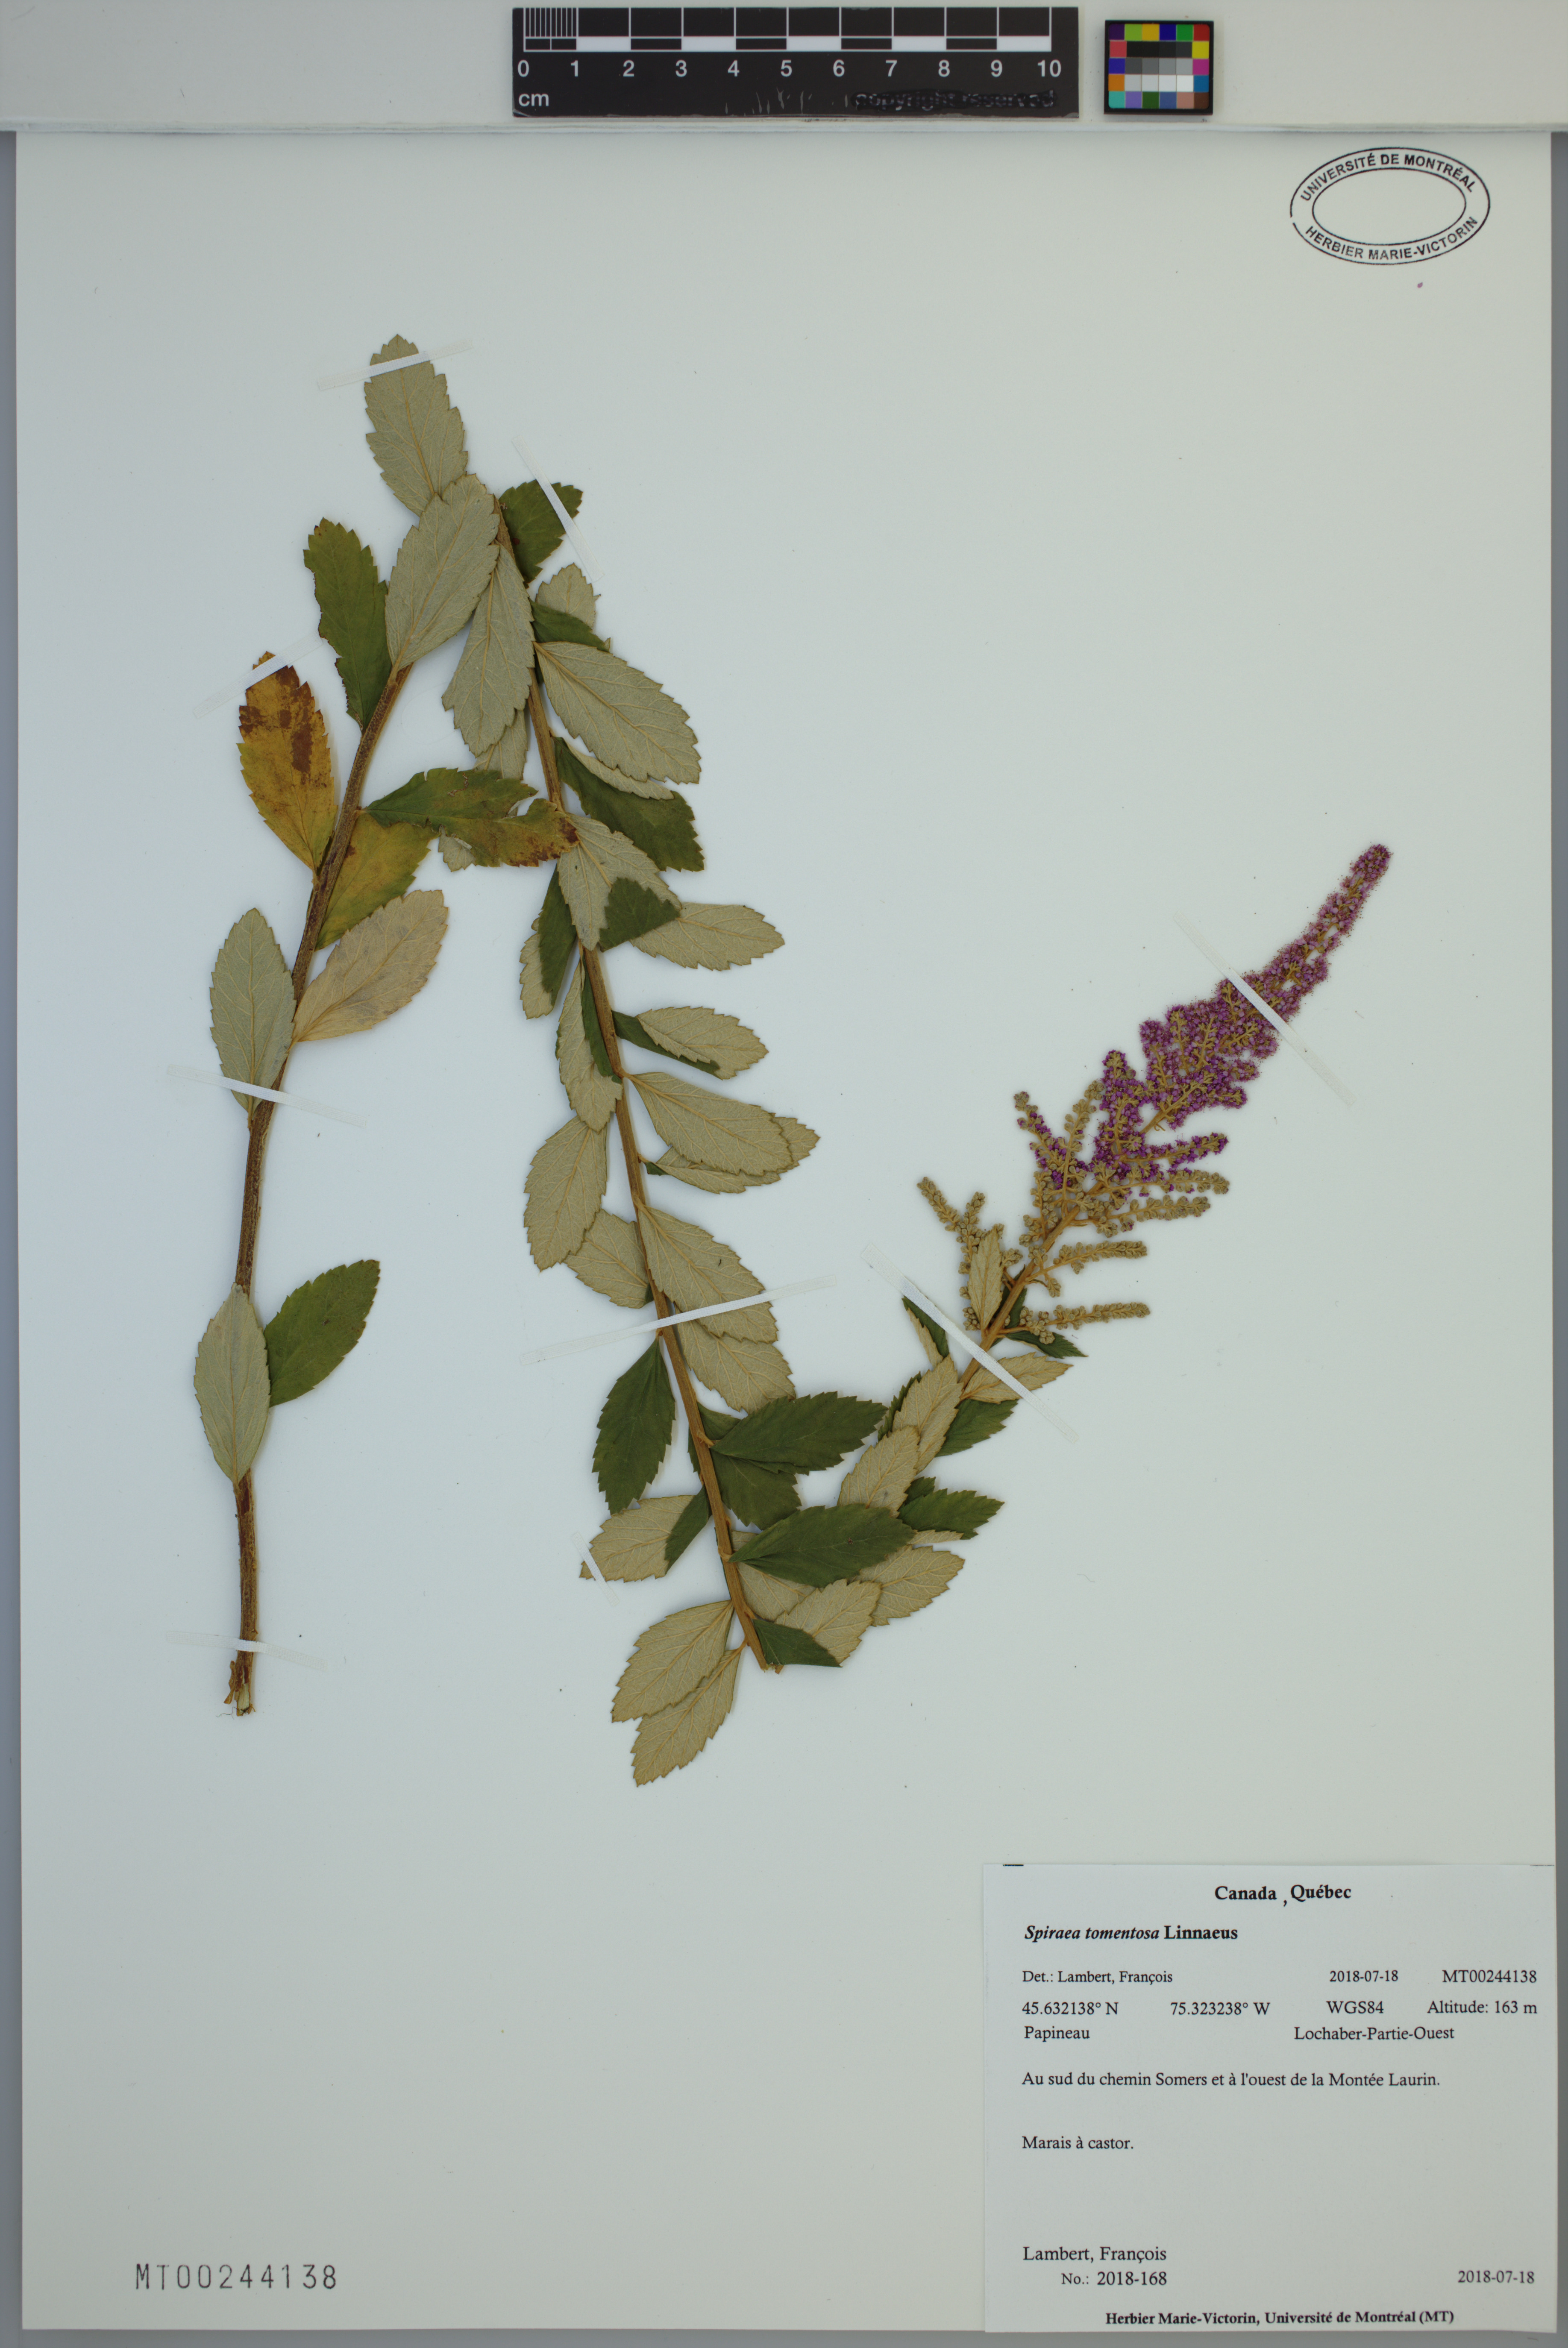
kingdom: Plantae
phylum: Tracheophyta
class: Magnoliopsida
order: Rosales
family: Rosaceae
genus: Spiraea
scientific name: Spiraea tomentosa
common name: Hardhack
